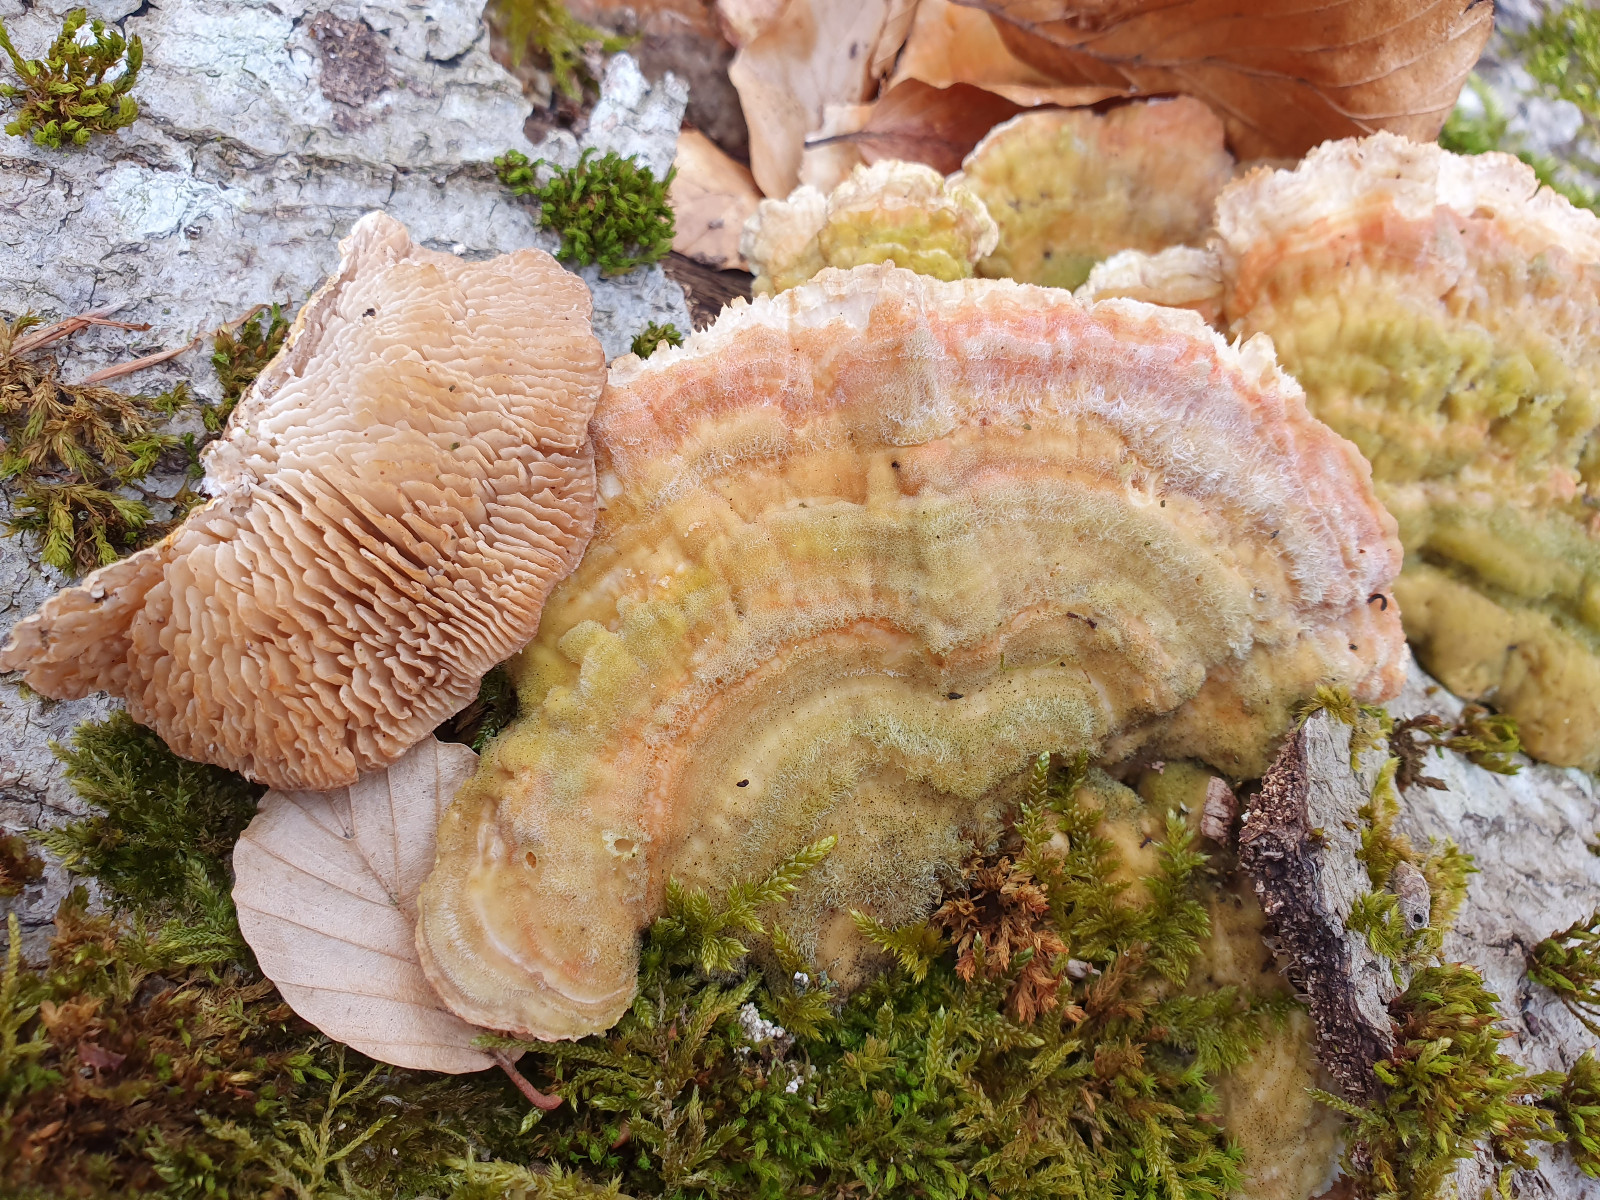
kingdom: Fungi
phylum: Basidiomycota
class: Agaricomycetes
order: Polyporales
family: Polyporaceae
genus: Lenzites
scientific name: Lenzites betulinus
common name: birke-læderporesvamp
